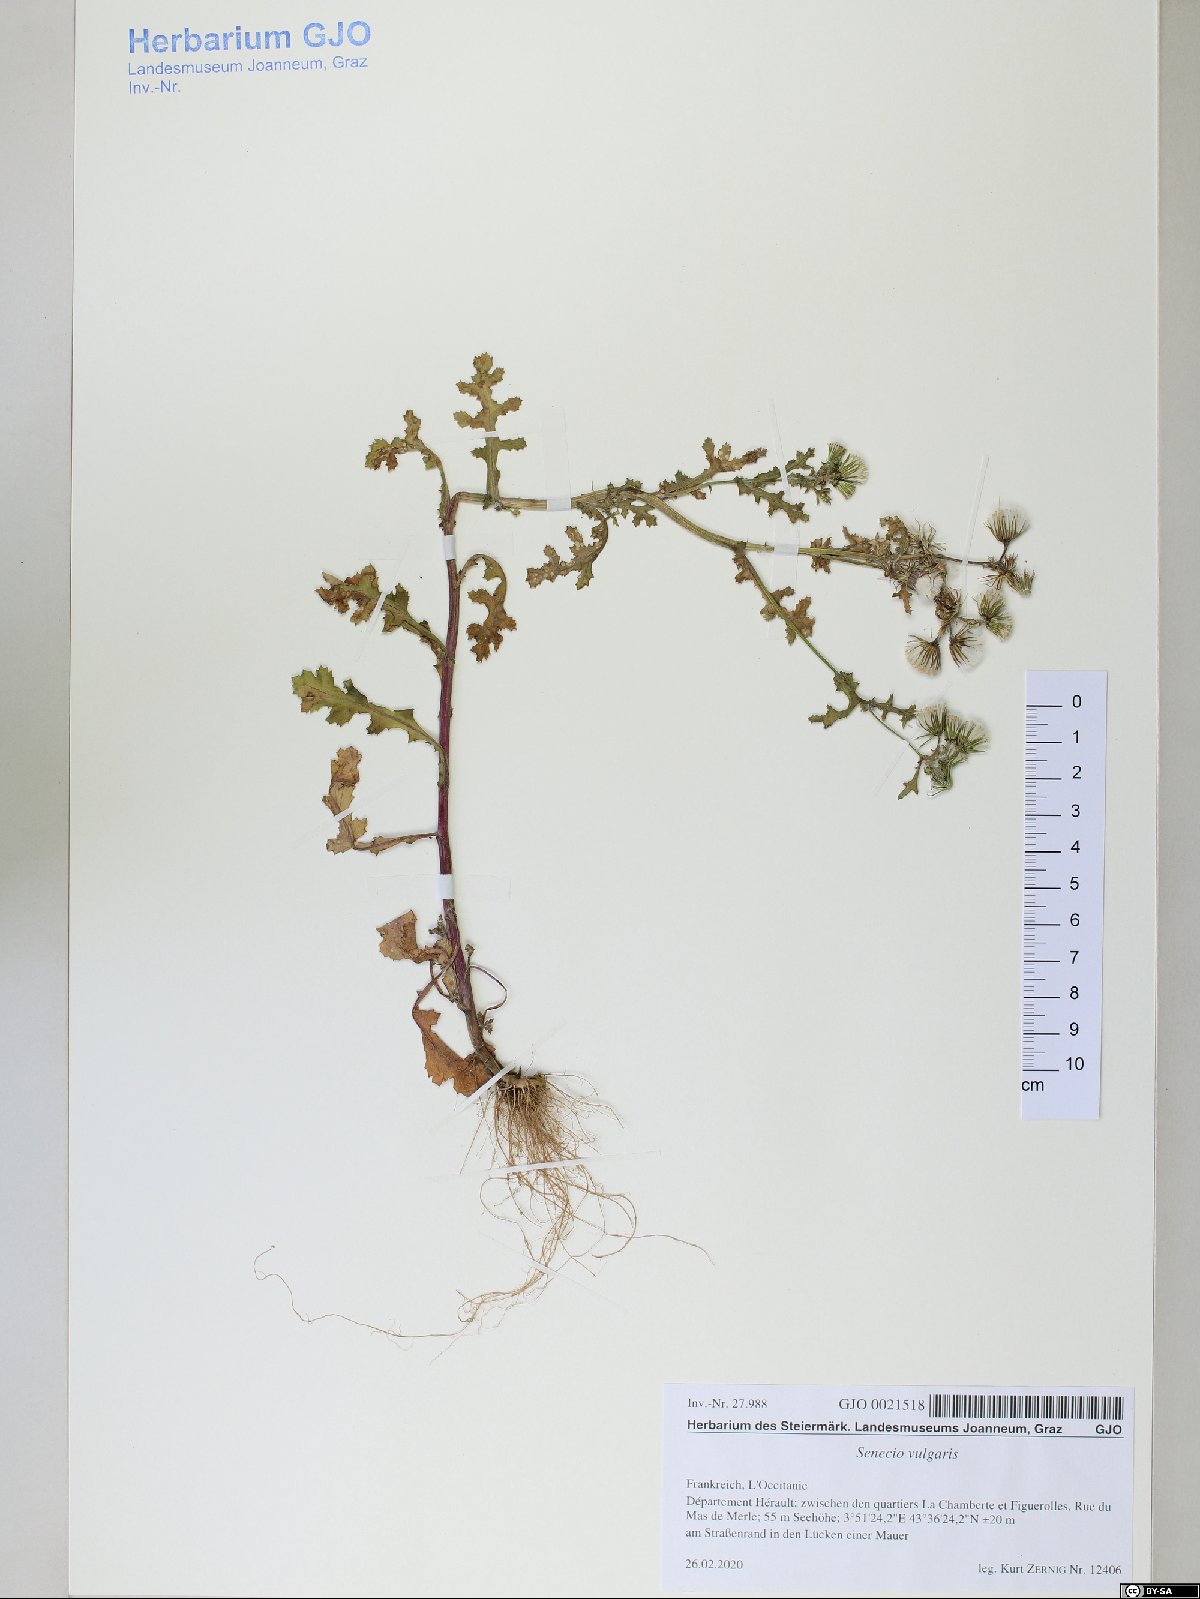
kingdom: Plantae
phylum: Tracheophyta
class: Magnoliopsida
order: Asterales
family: Asteraceae
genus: Senecio
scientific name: Senecio vulgaris
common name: Old-man-in-the-spring
